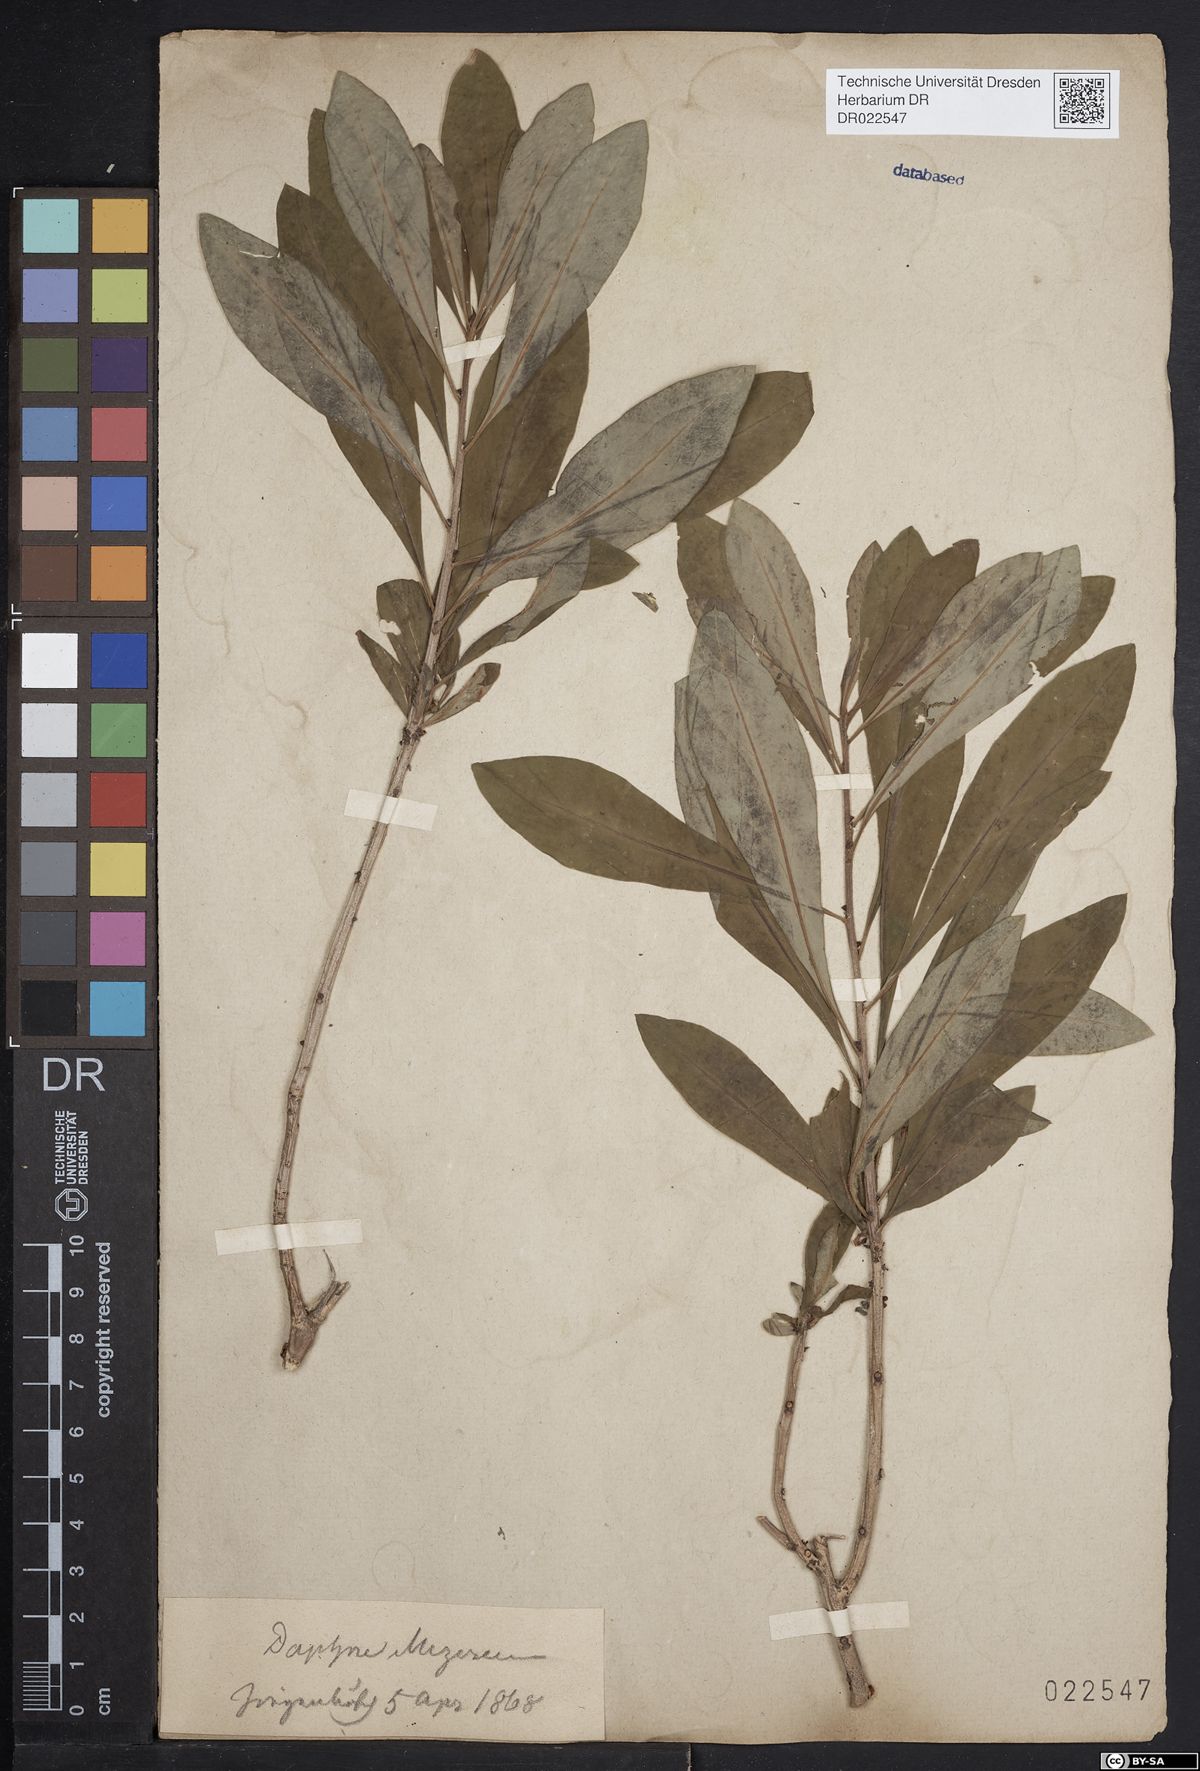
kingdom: Plantae
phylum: Tracheophyta
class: Magnoliopsida
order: Malvales
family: Thymelaeaceae
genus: Daphne
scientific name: Daphne mezereum
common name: Mezereon
